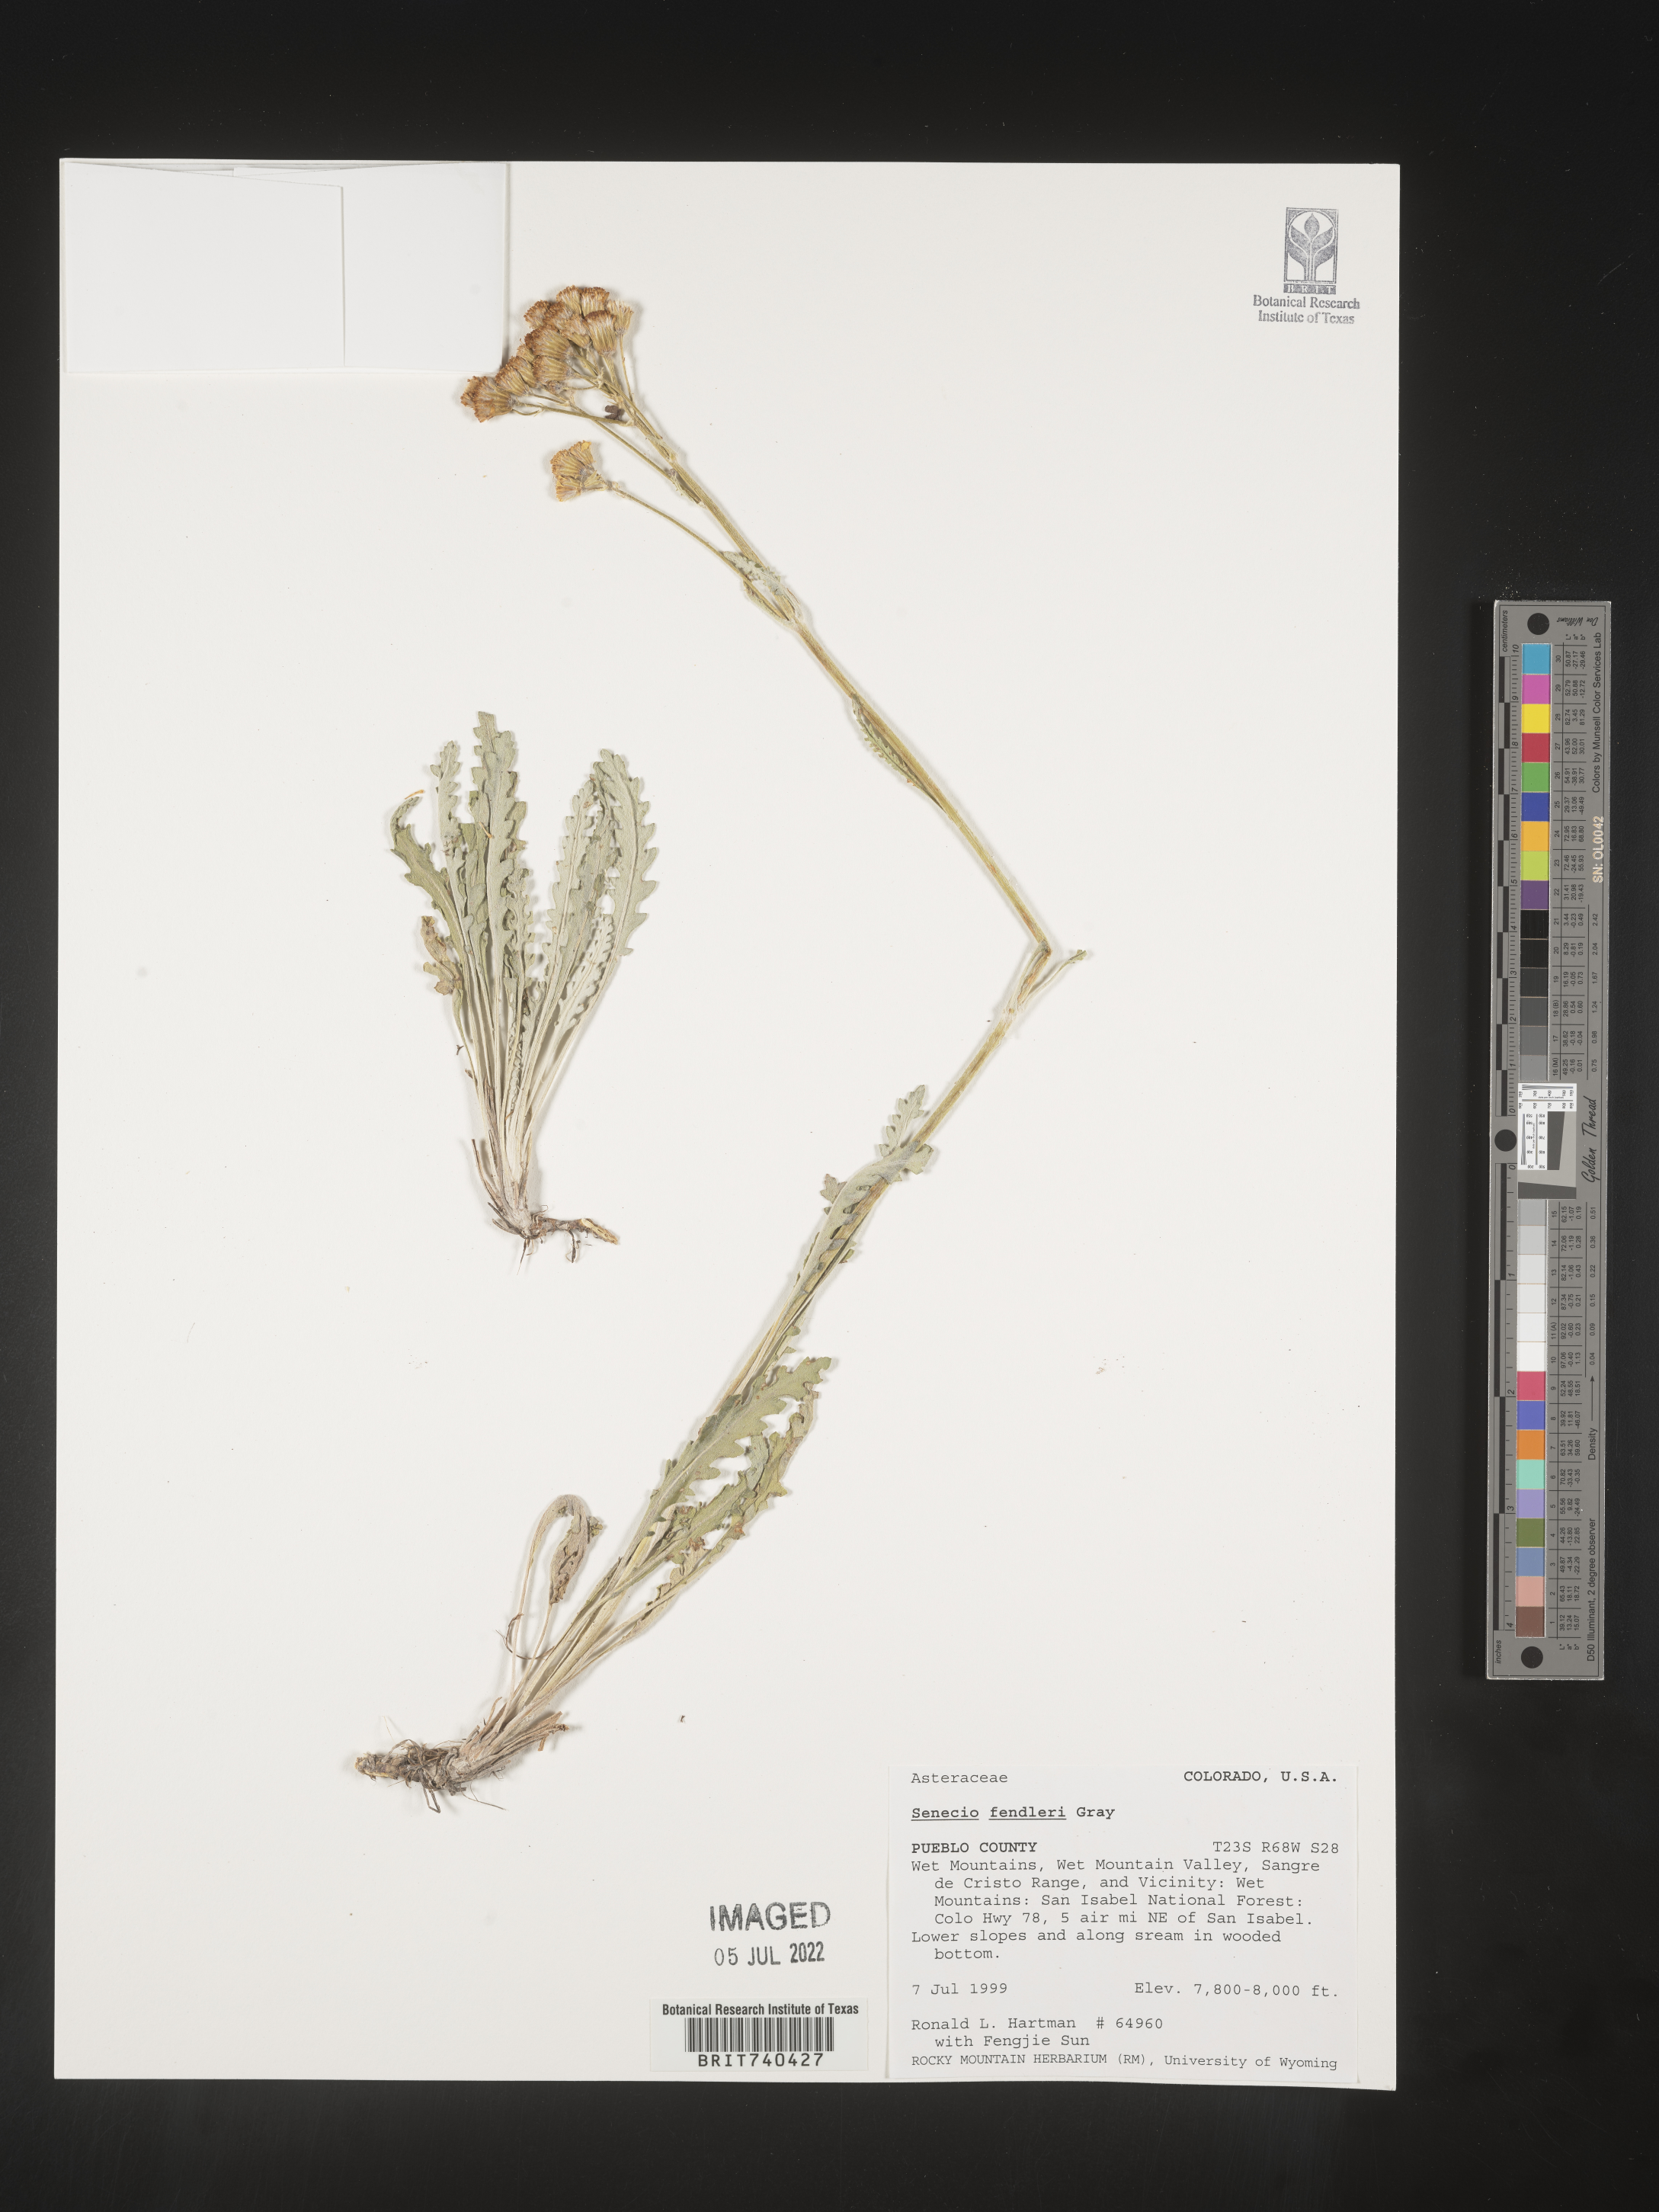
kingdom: Plantae
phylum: Tracheophyta
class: Magnoliopsida
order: Asterales
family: Asteraceae
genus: Packera
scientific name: Packera fendleri
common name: Notch-leaf butterweed
